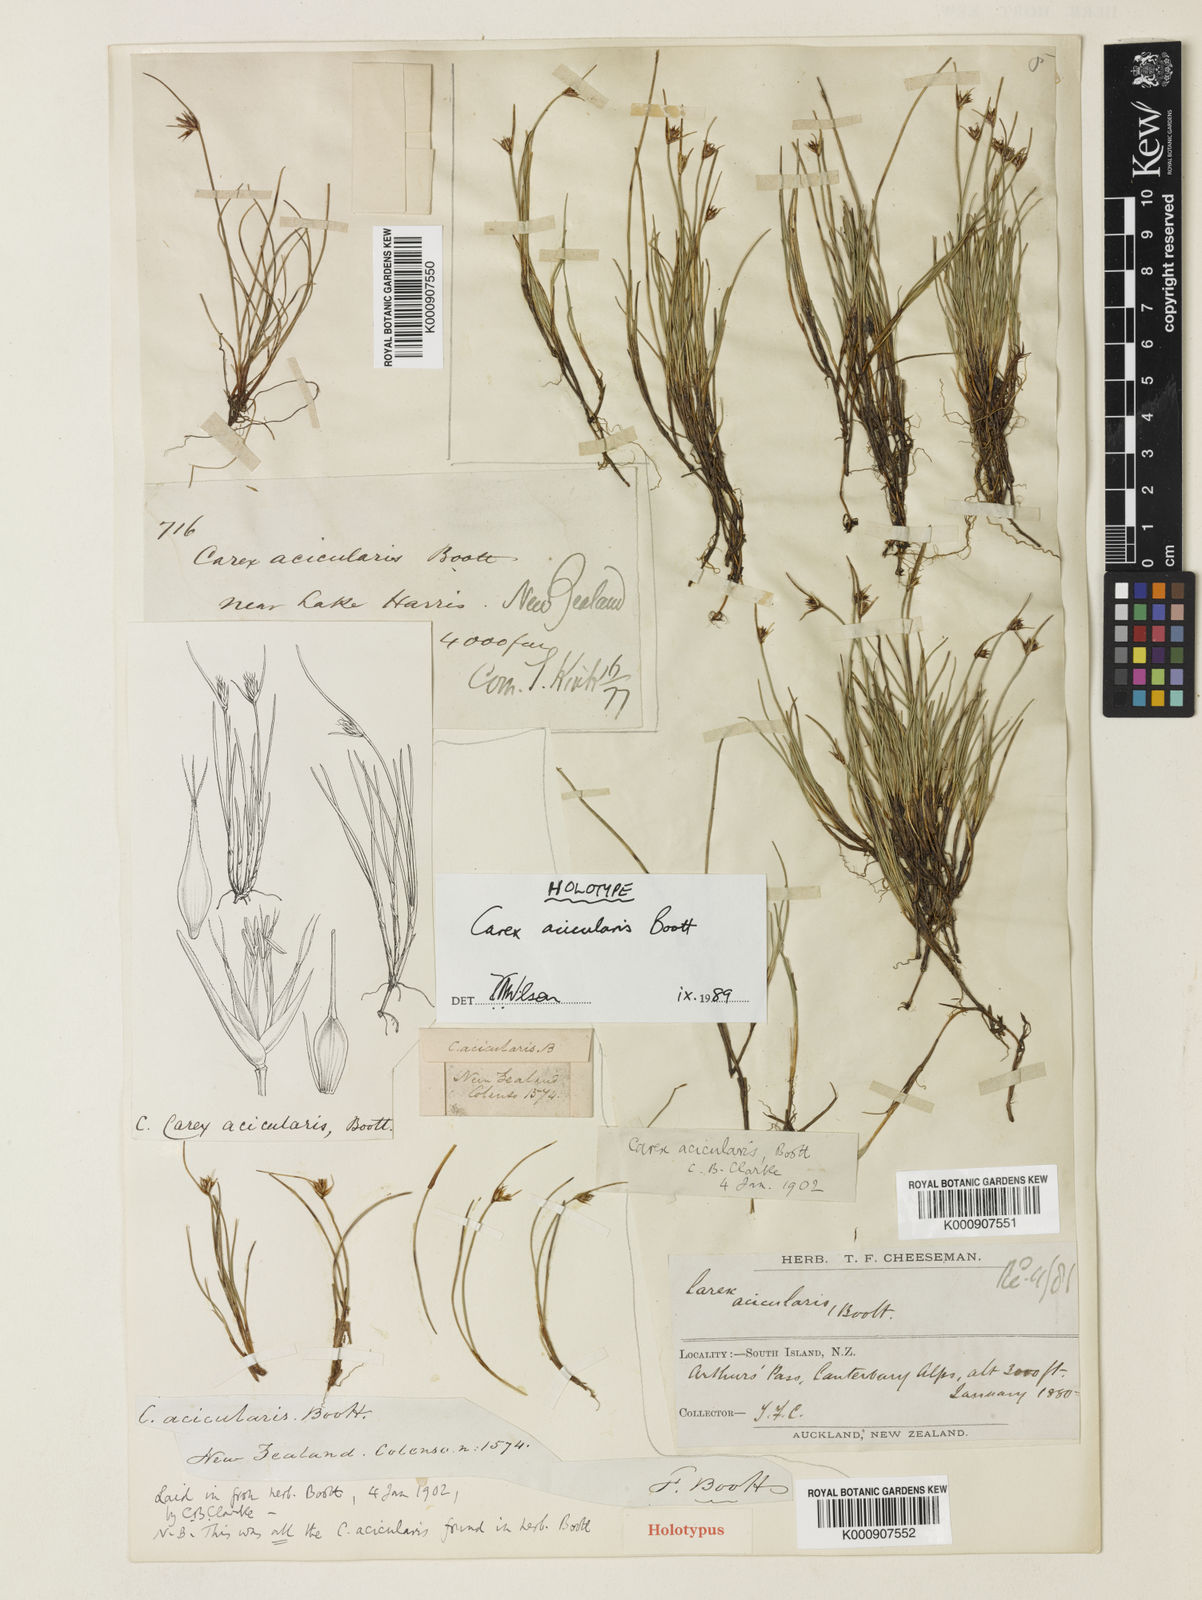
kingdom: Plantae
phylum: Tracheophyta
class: Liliopsida
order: Poales
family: Cyperaceae
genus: Carex
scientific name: Carex acicularis
